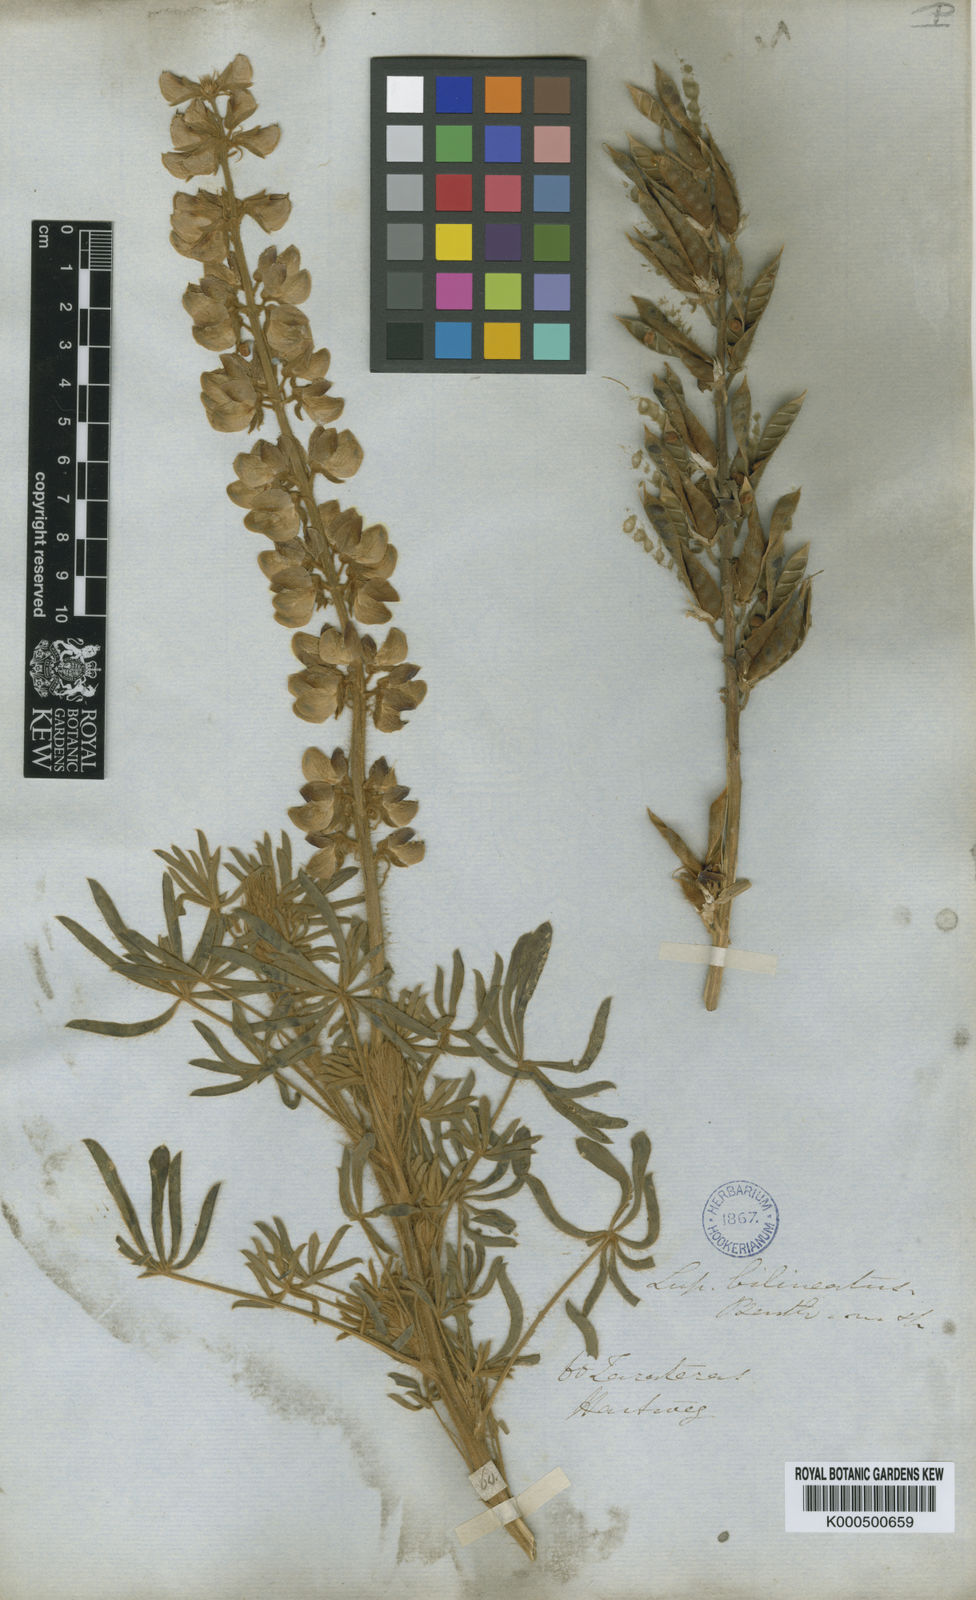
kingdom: Plantae
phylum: Tracheophyta
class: Magnoliopsida
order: Fabales
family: Fabaceae
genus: Lupinus
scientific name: Lupinus ehrenbergii
